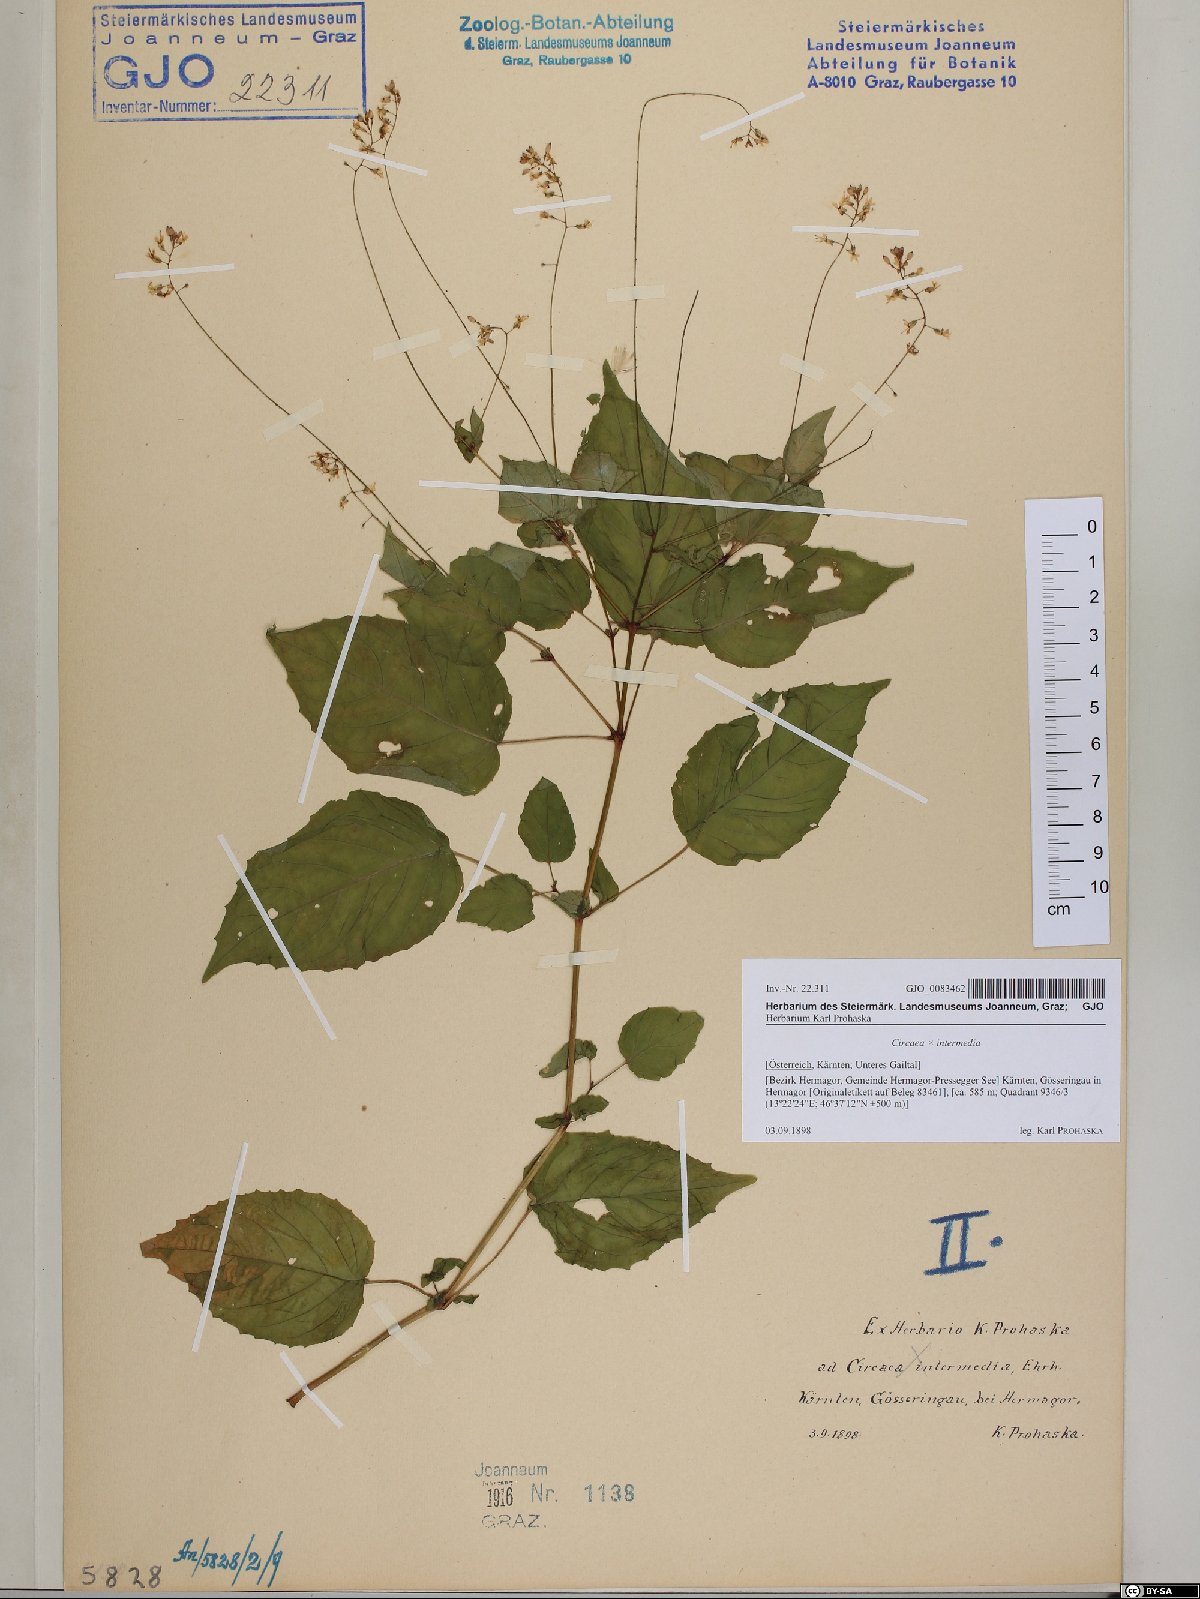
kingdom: Plantae
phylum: Tracheophyta
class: Magnoliopsida
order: Myrtales
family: Onagraceae
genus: Circaea
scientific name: Circaea intermedia
